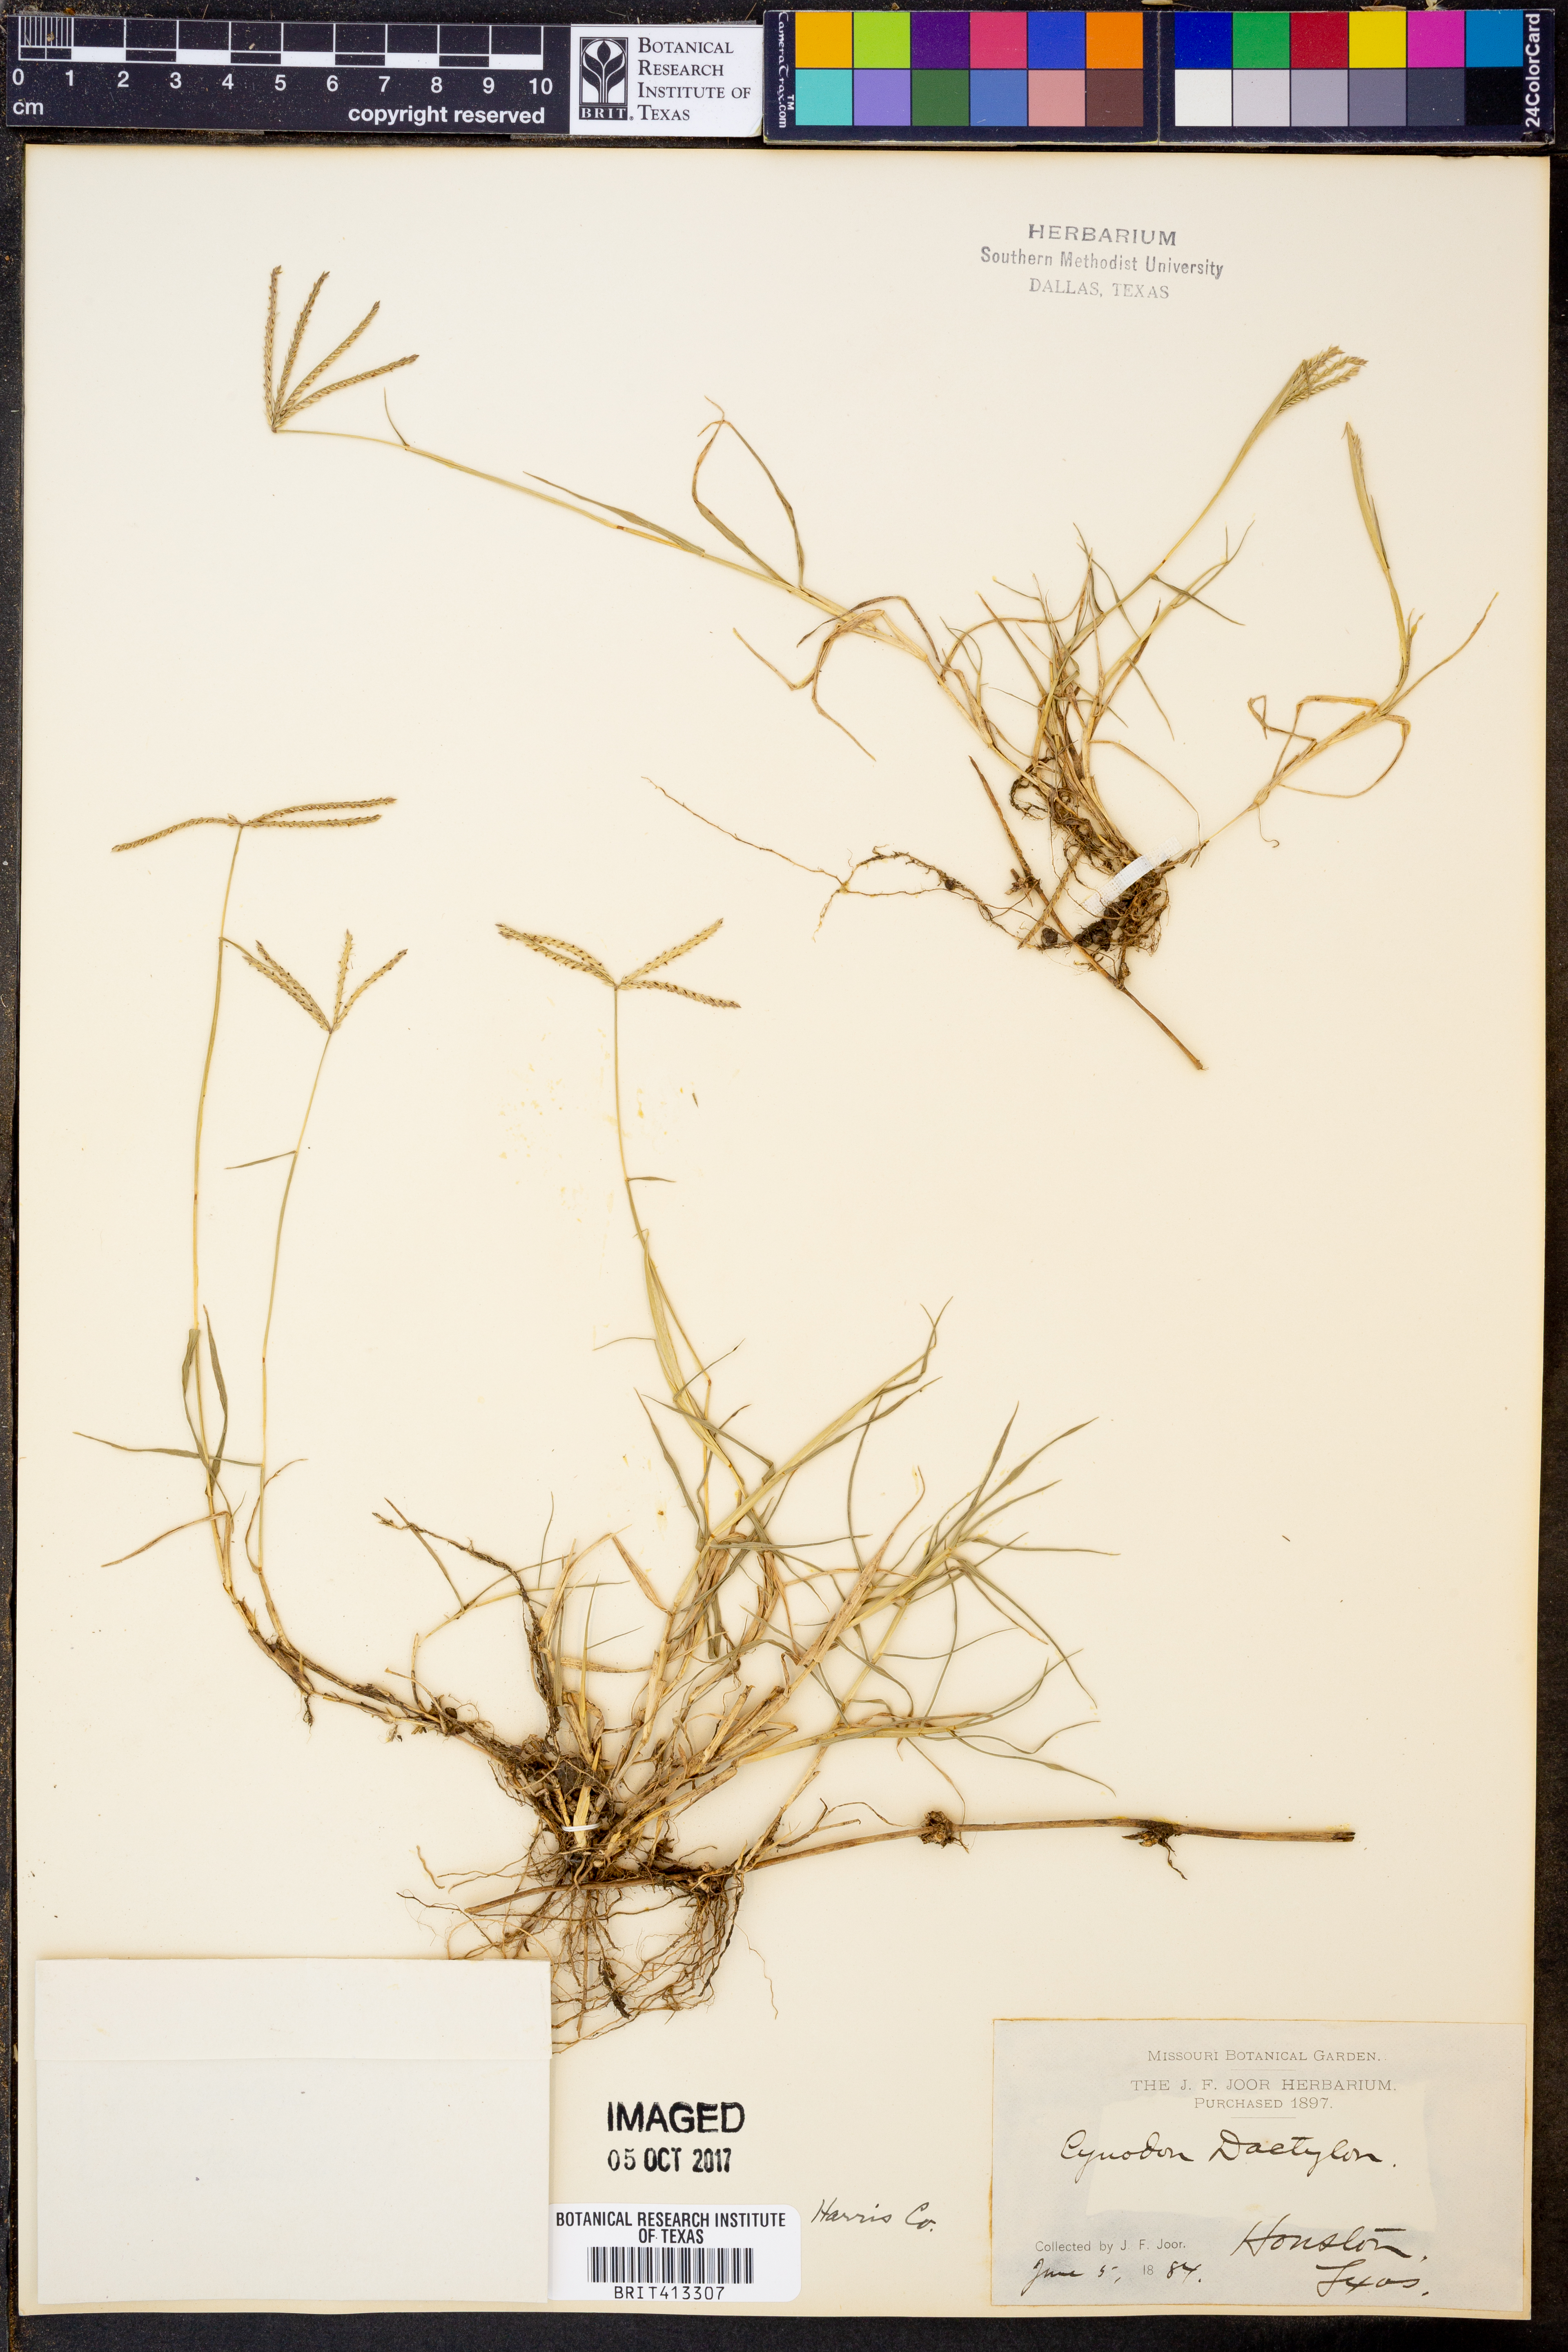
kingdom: Plantae
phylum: Tracheophyta
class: Liliopsida
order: Poales
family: Poaceae
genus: Cynodon
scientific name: Cynodon dactylon
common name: Bermuda grass
